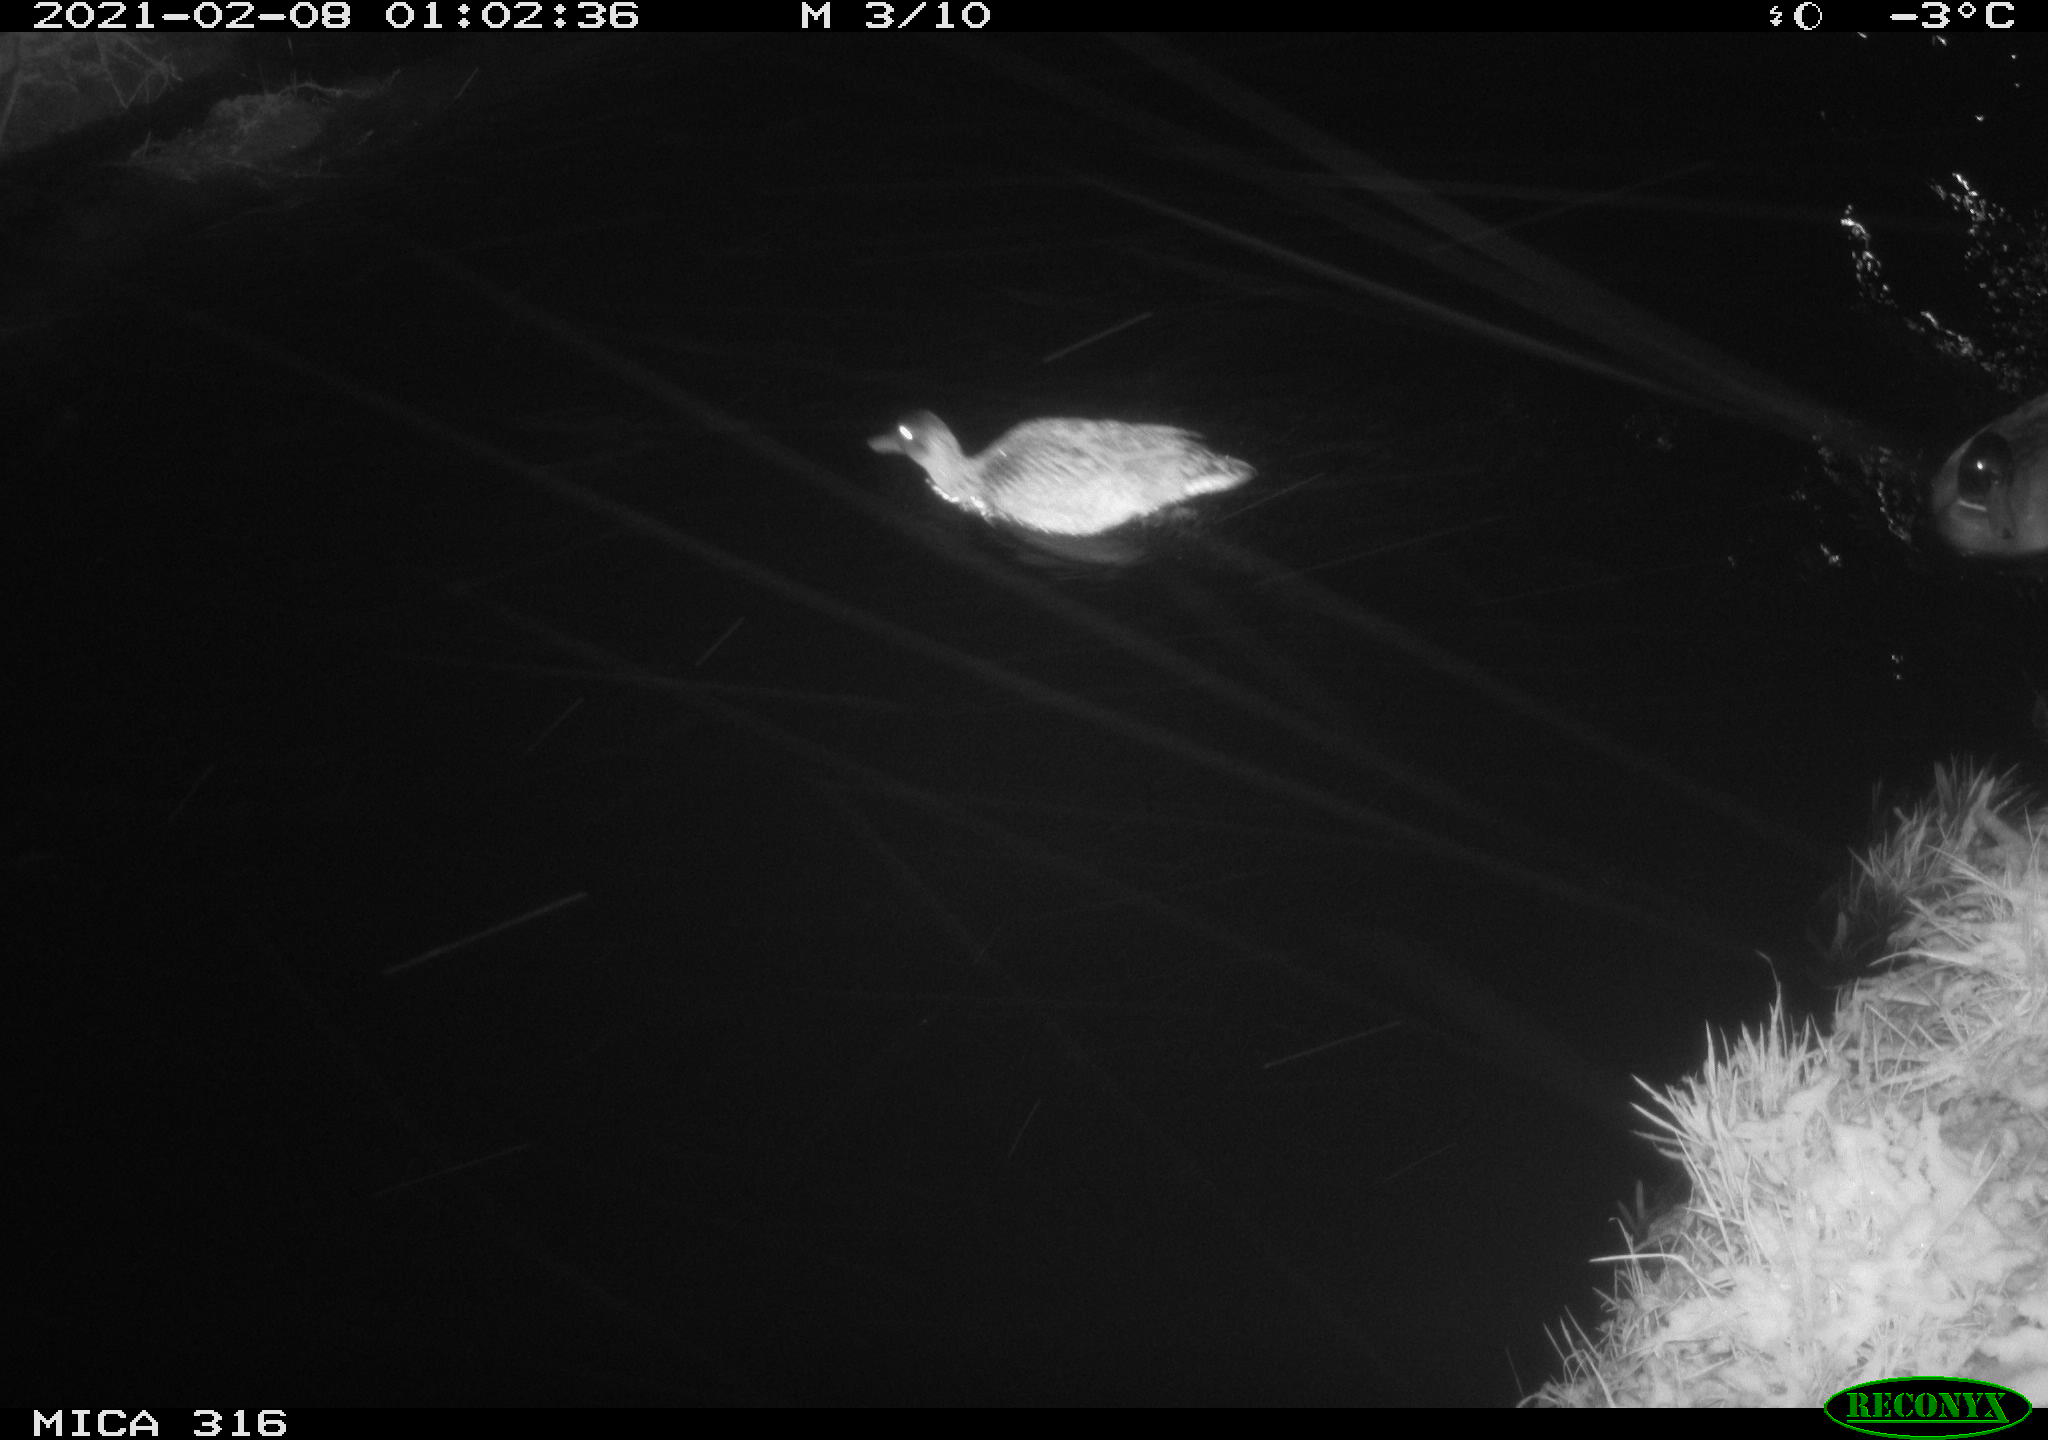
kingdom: Animalia
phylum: Chordata
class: Aves
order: Anseriformes
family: Anatidae
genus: Anas
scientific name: Anas platyrhynchos
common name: Mallard
